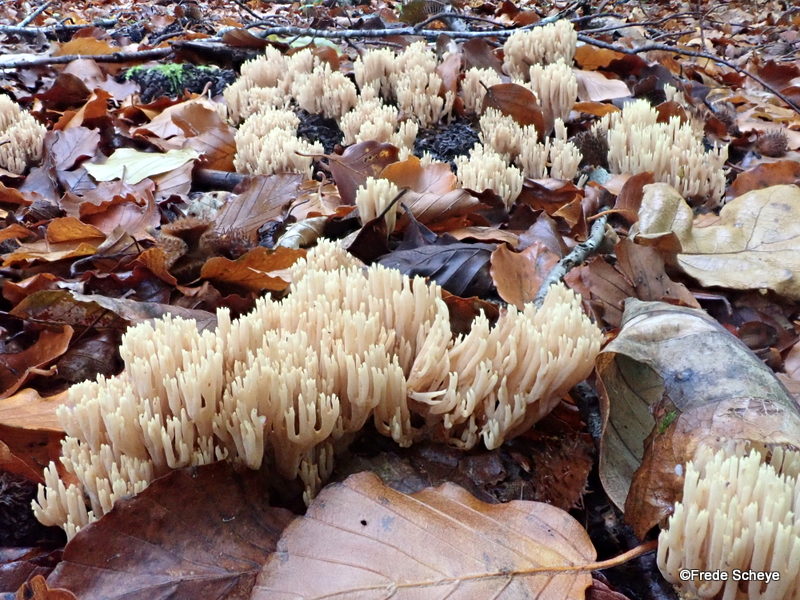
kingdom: Fungi
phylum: Basidiomycota
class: Agaricomycetes
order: Gomphales
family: Gomphaceae
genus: Ramaria
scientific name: Ramaria stricta
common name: rank koralsvamp
